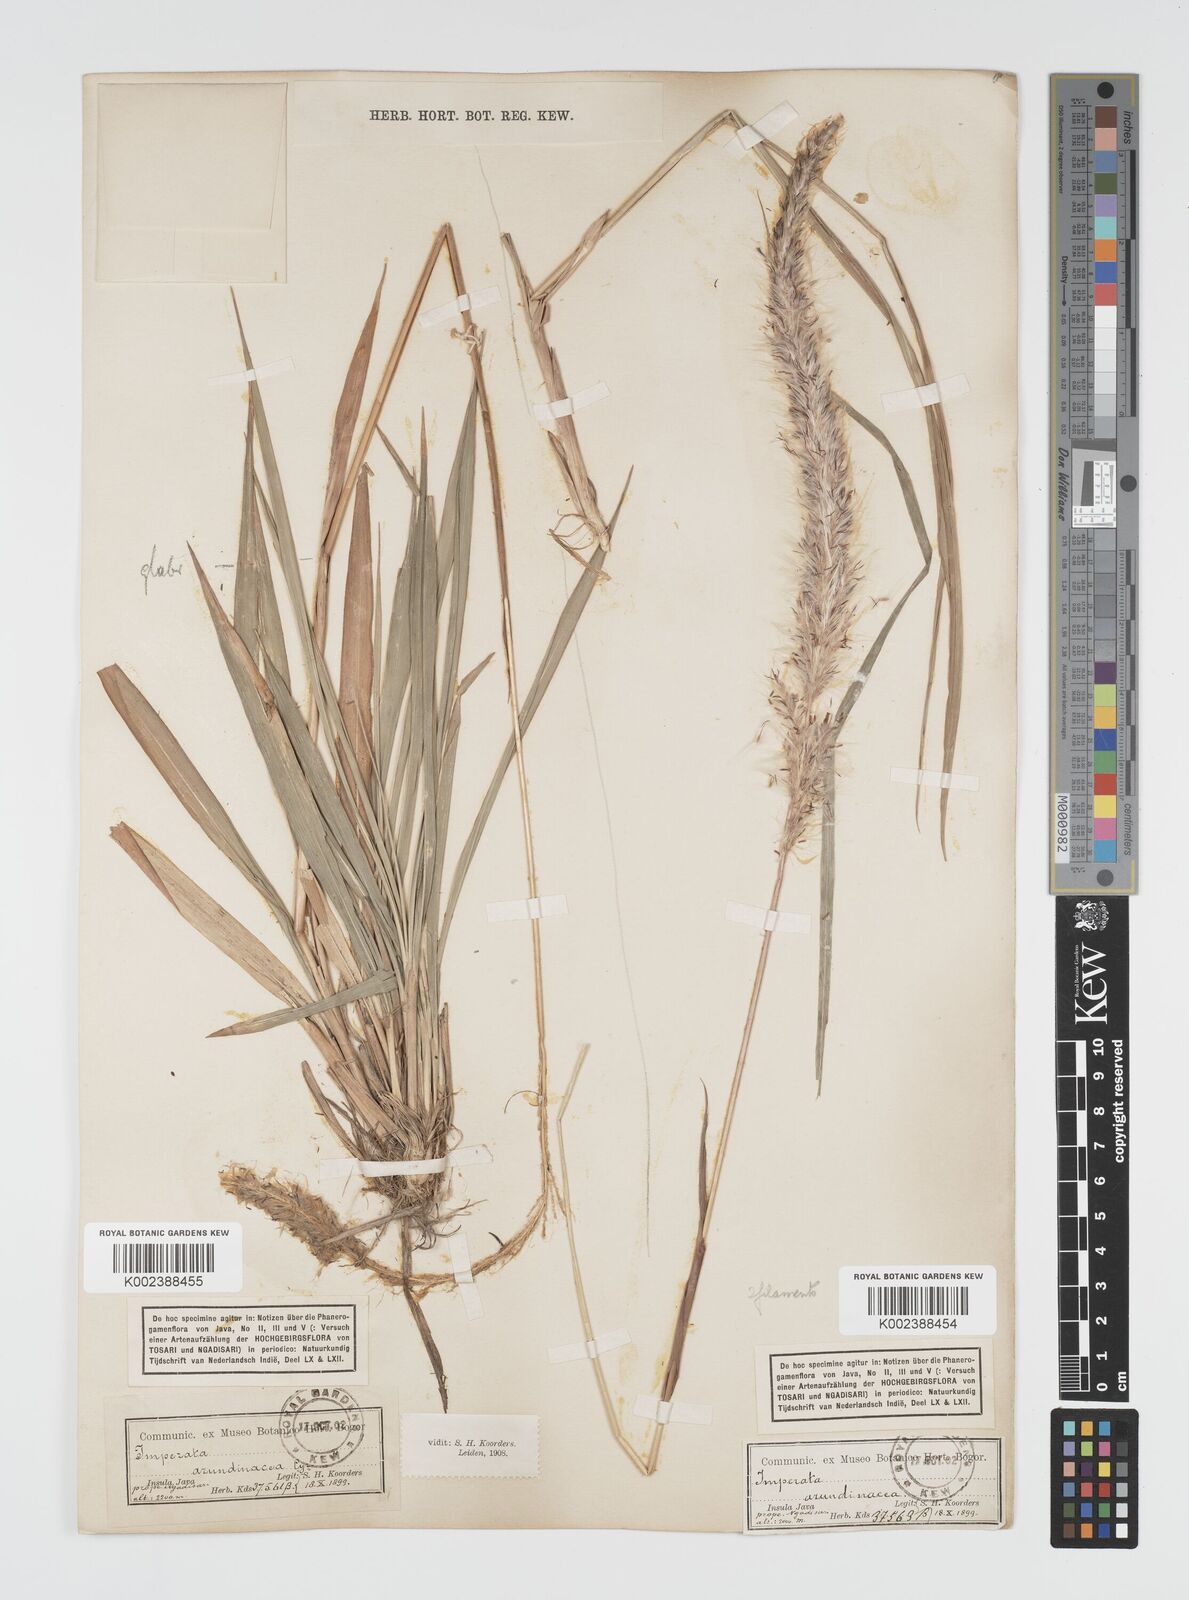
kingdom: Plantae
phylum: Tracheophyta
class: Liliopsida
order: Poales
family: Poaceae
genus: Imperata
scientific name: Imperata
